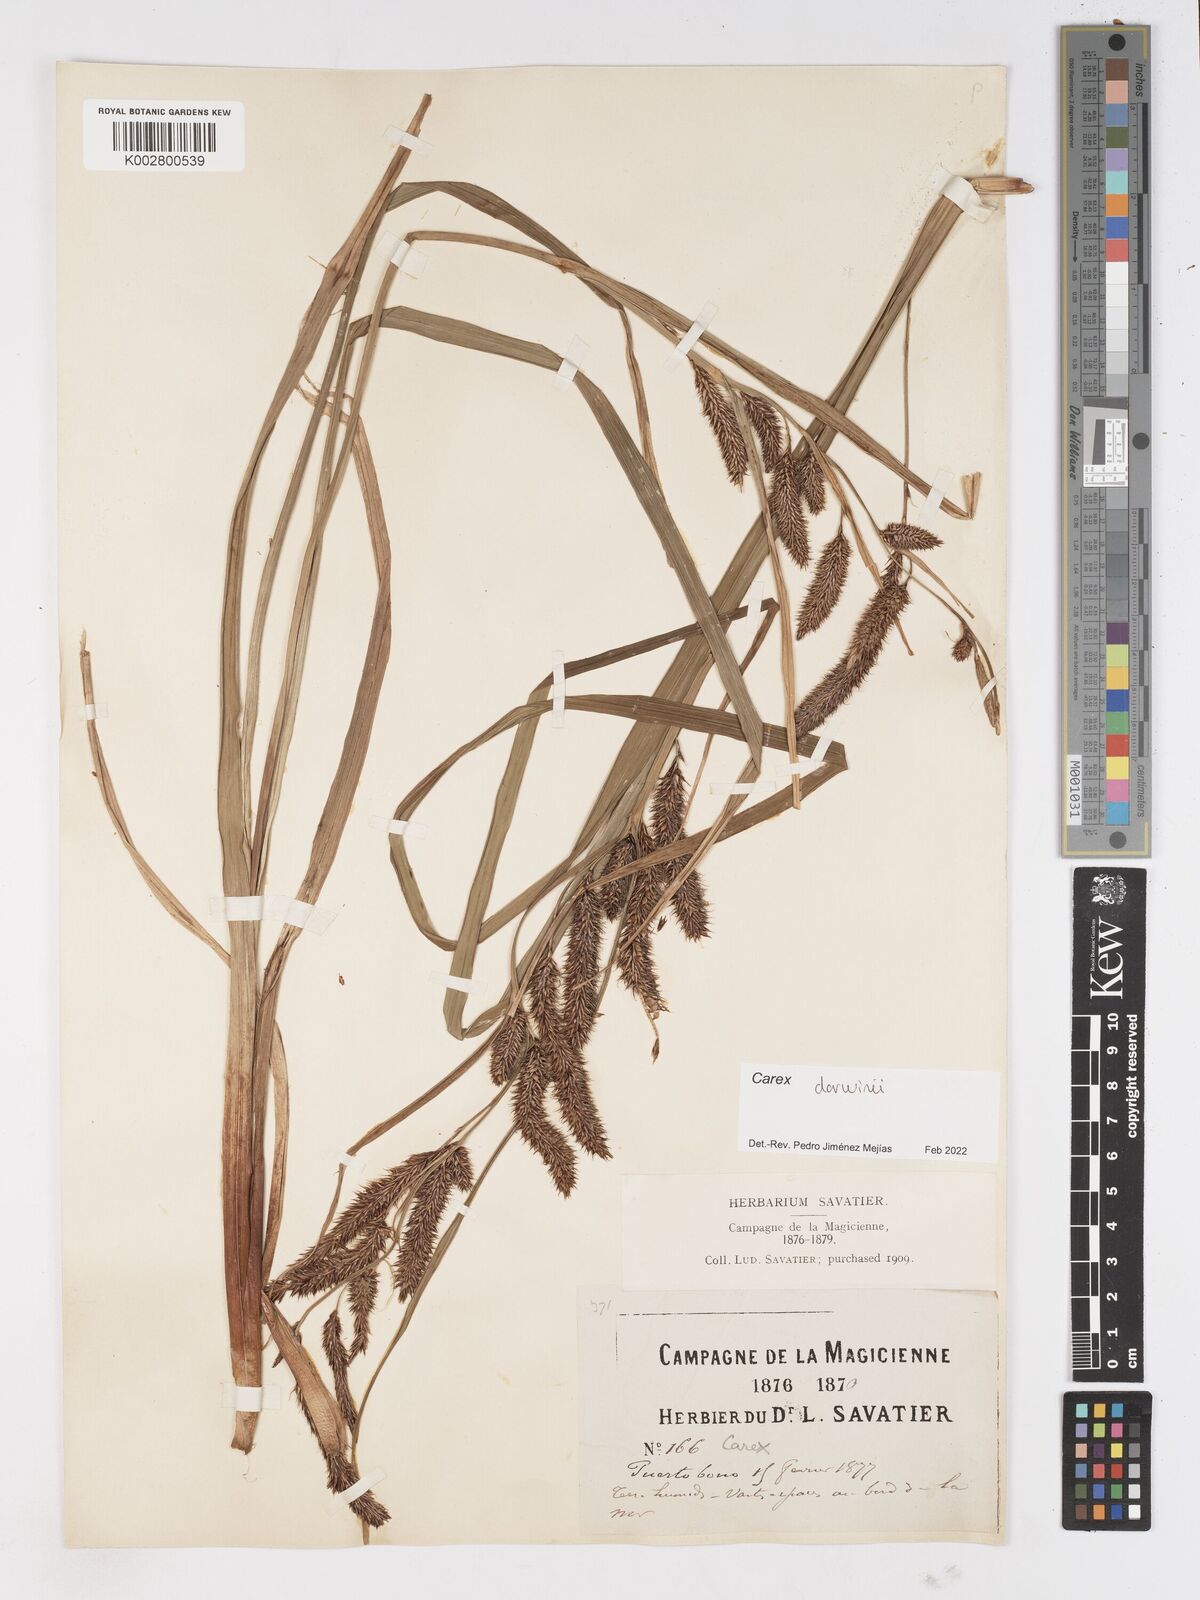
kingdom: Plantae
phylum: Tracheophyta
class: Liliopsida
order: Poales
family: Cyperaceae
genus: Carex
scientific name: Carex darwinii
